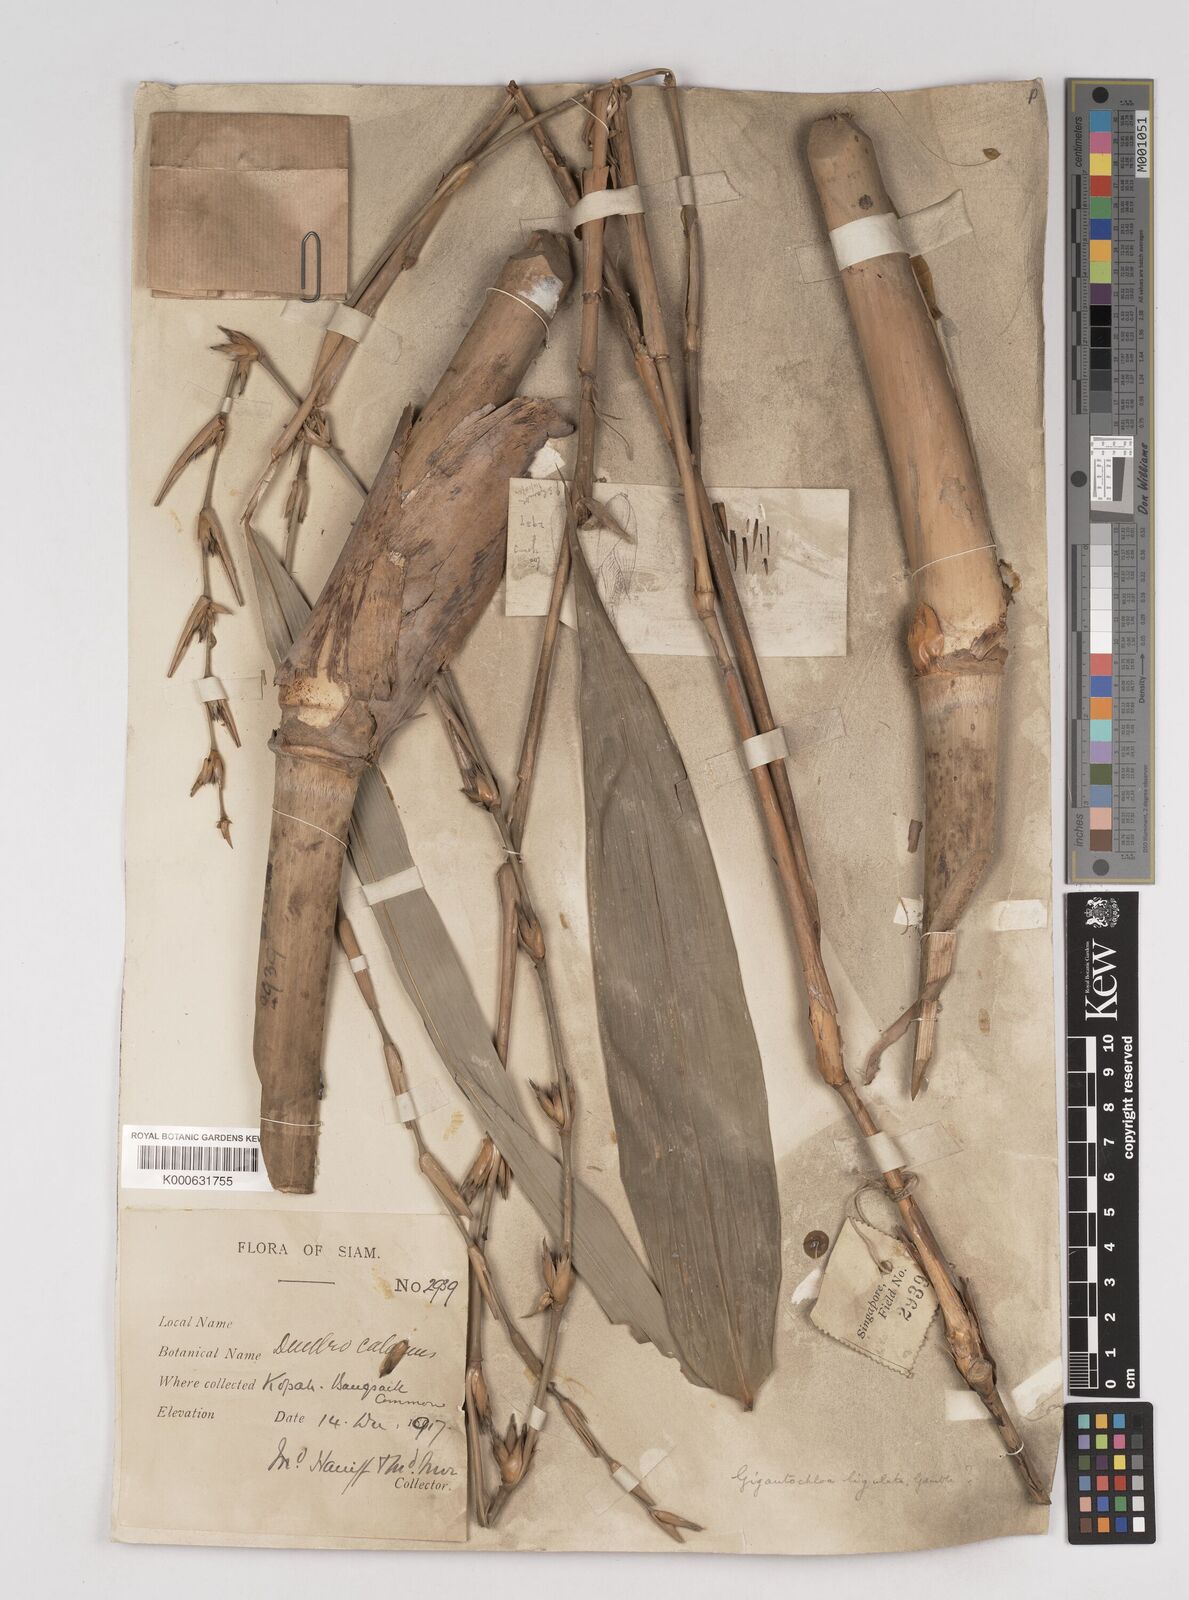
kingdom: Plantae
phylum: Tracheophyta
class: Liliopsida
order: Poales
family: Poaceae
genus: Gigantochloa
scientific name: Gigantochloa ligulata
